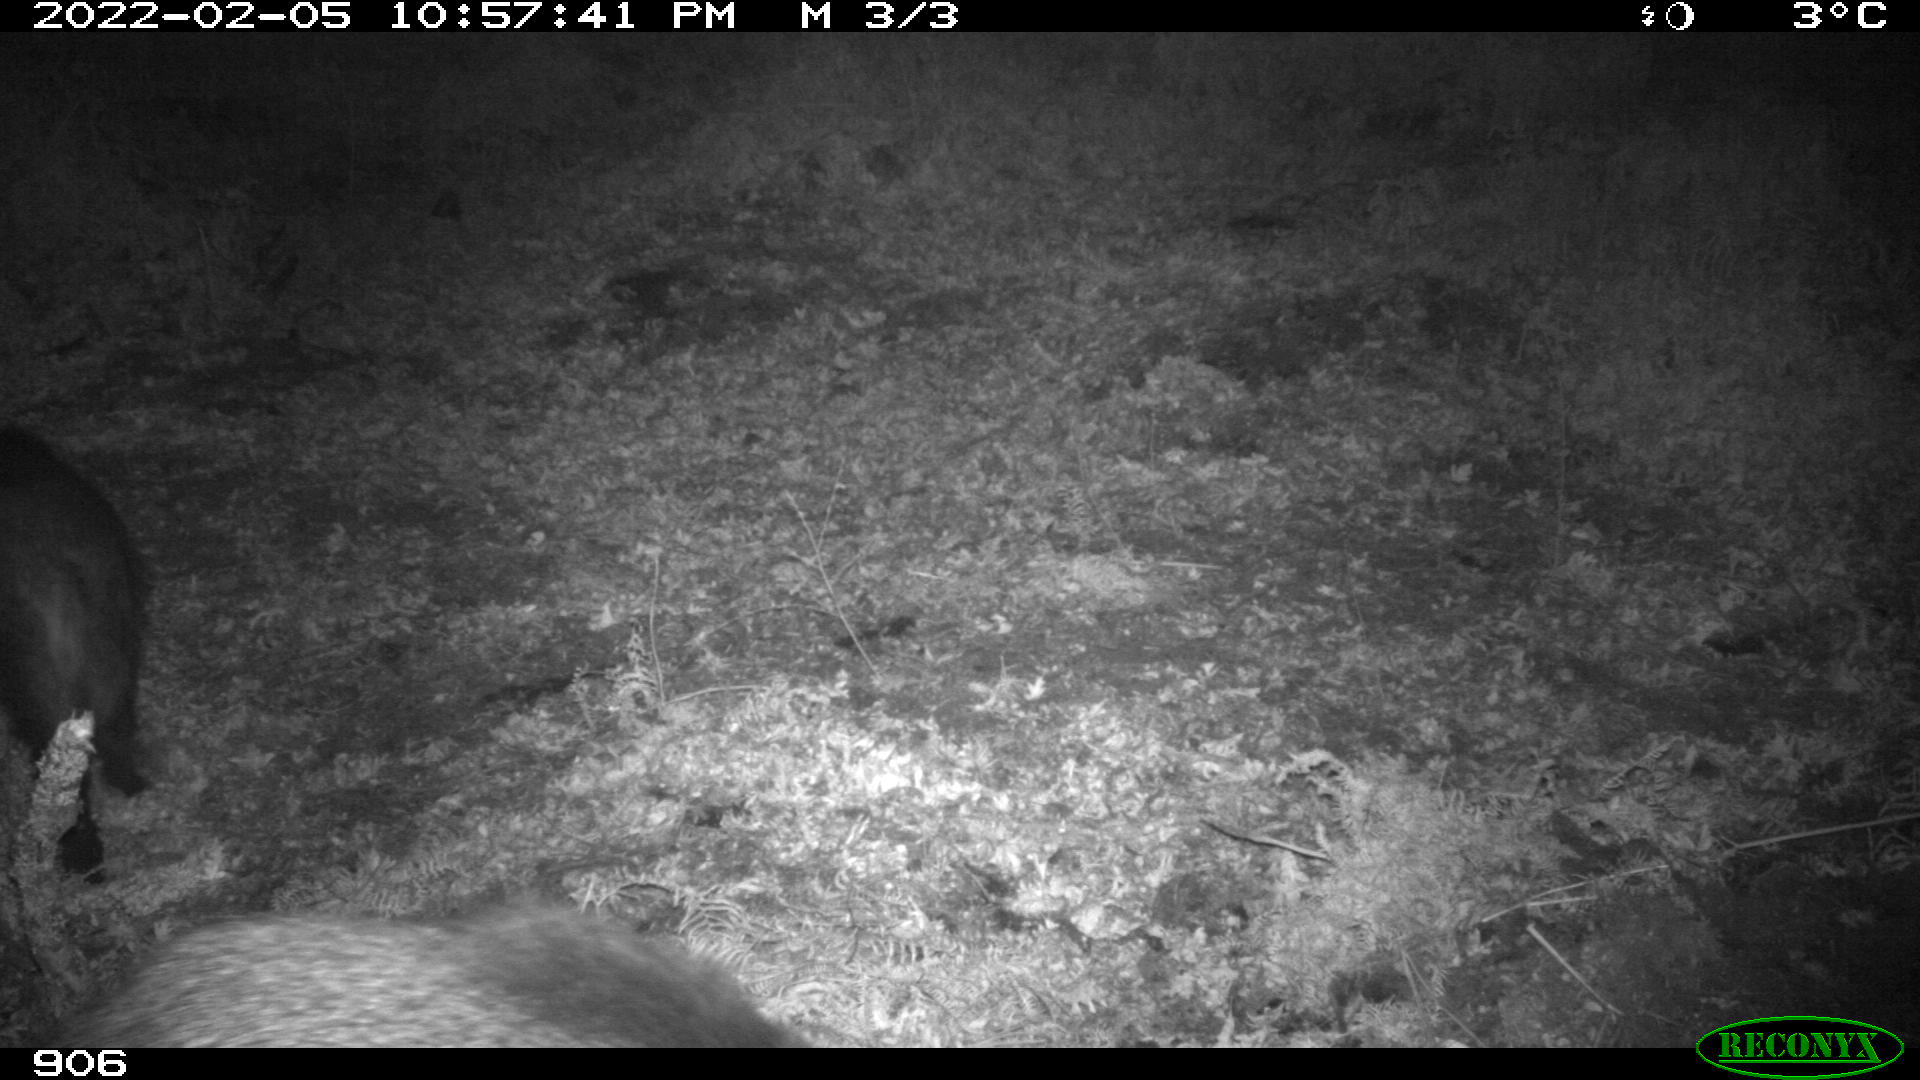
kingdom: Animalia
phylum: Chordata
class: Mammalia
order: Artiodactyla
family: Suidae
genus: Sus
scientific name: Sus scrofa
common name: Wild boar
